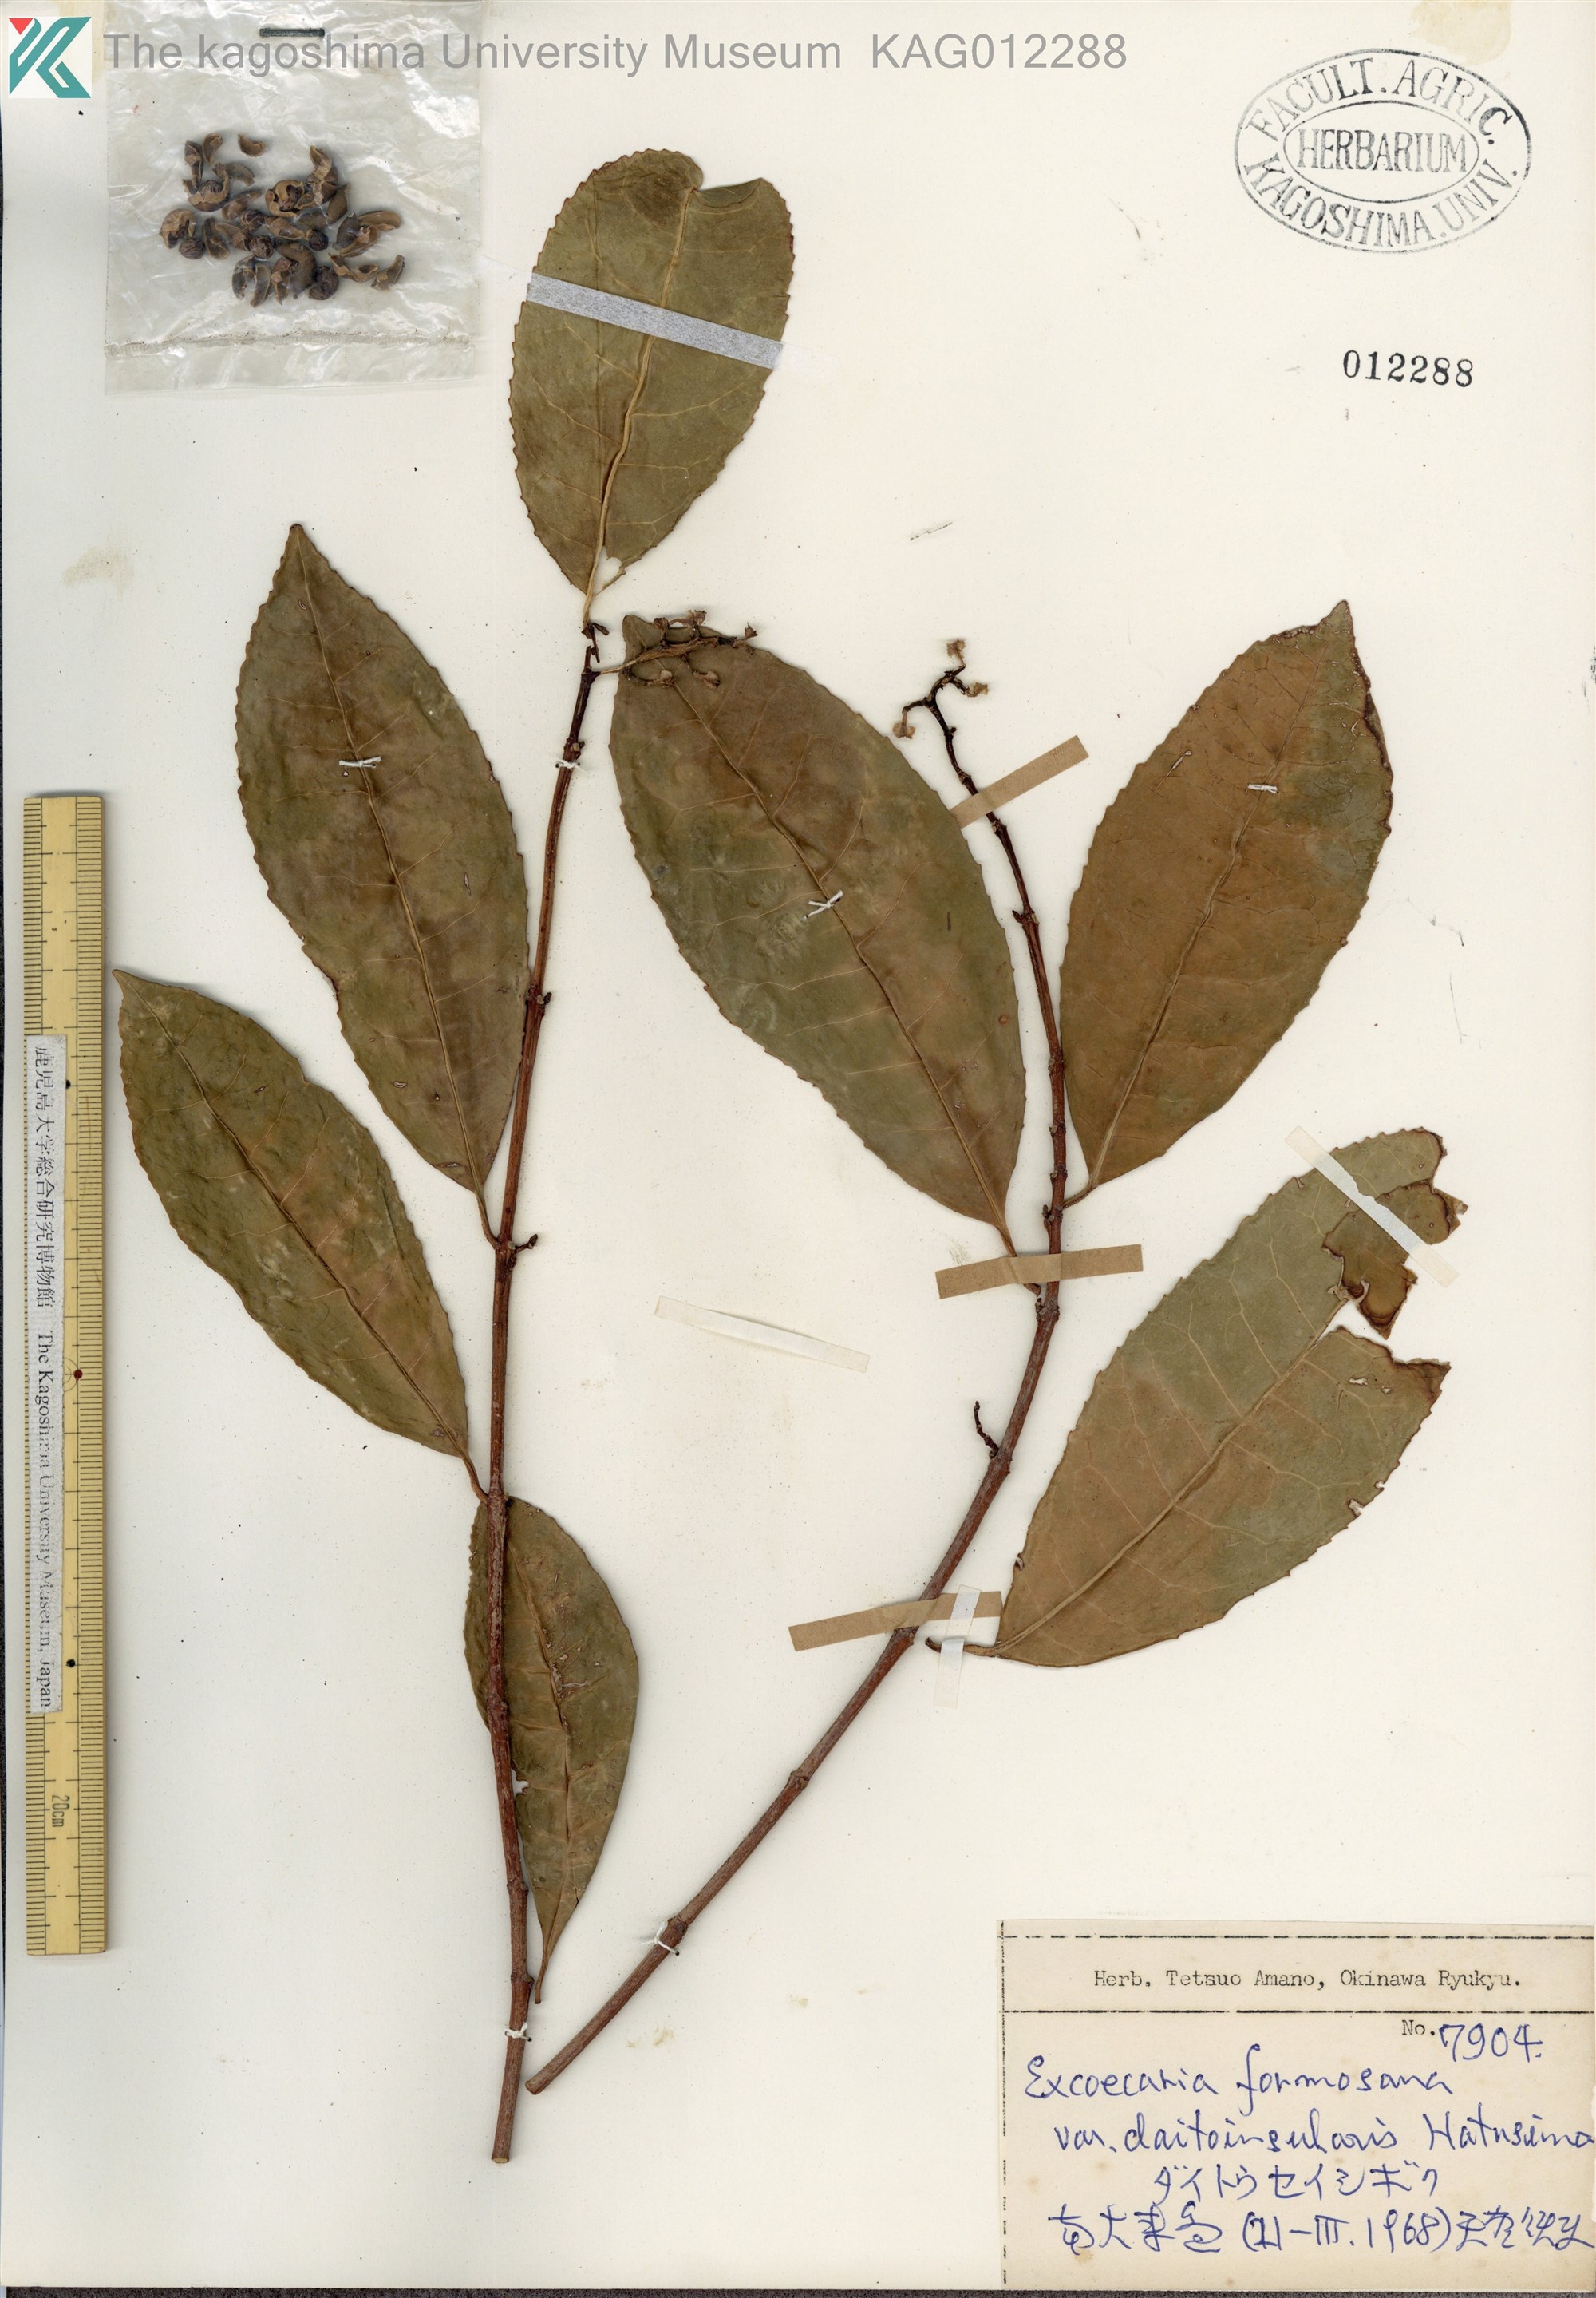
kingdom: Plantae
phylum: Tracheophyta
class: Magnoliopsida
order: Malpighiales
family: Euphorbiaceae
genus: Excoecaria
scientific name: Excoecaria formosana
